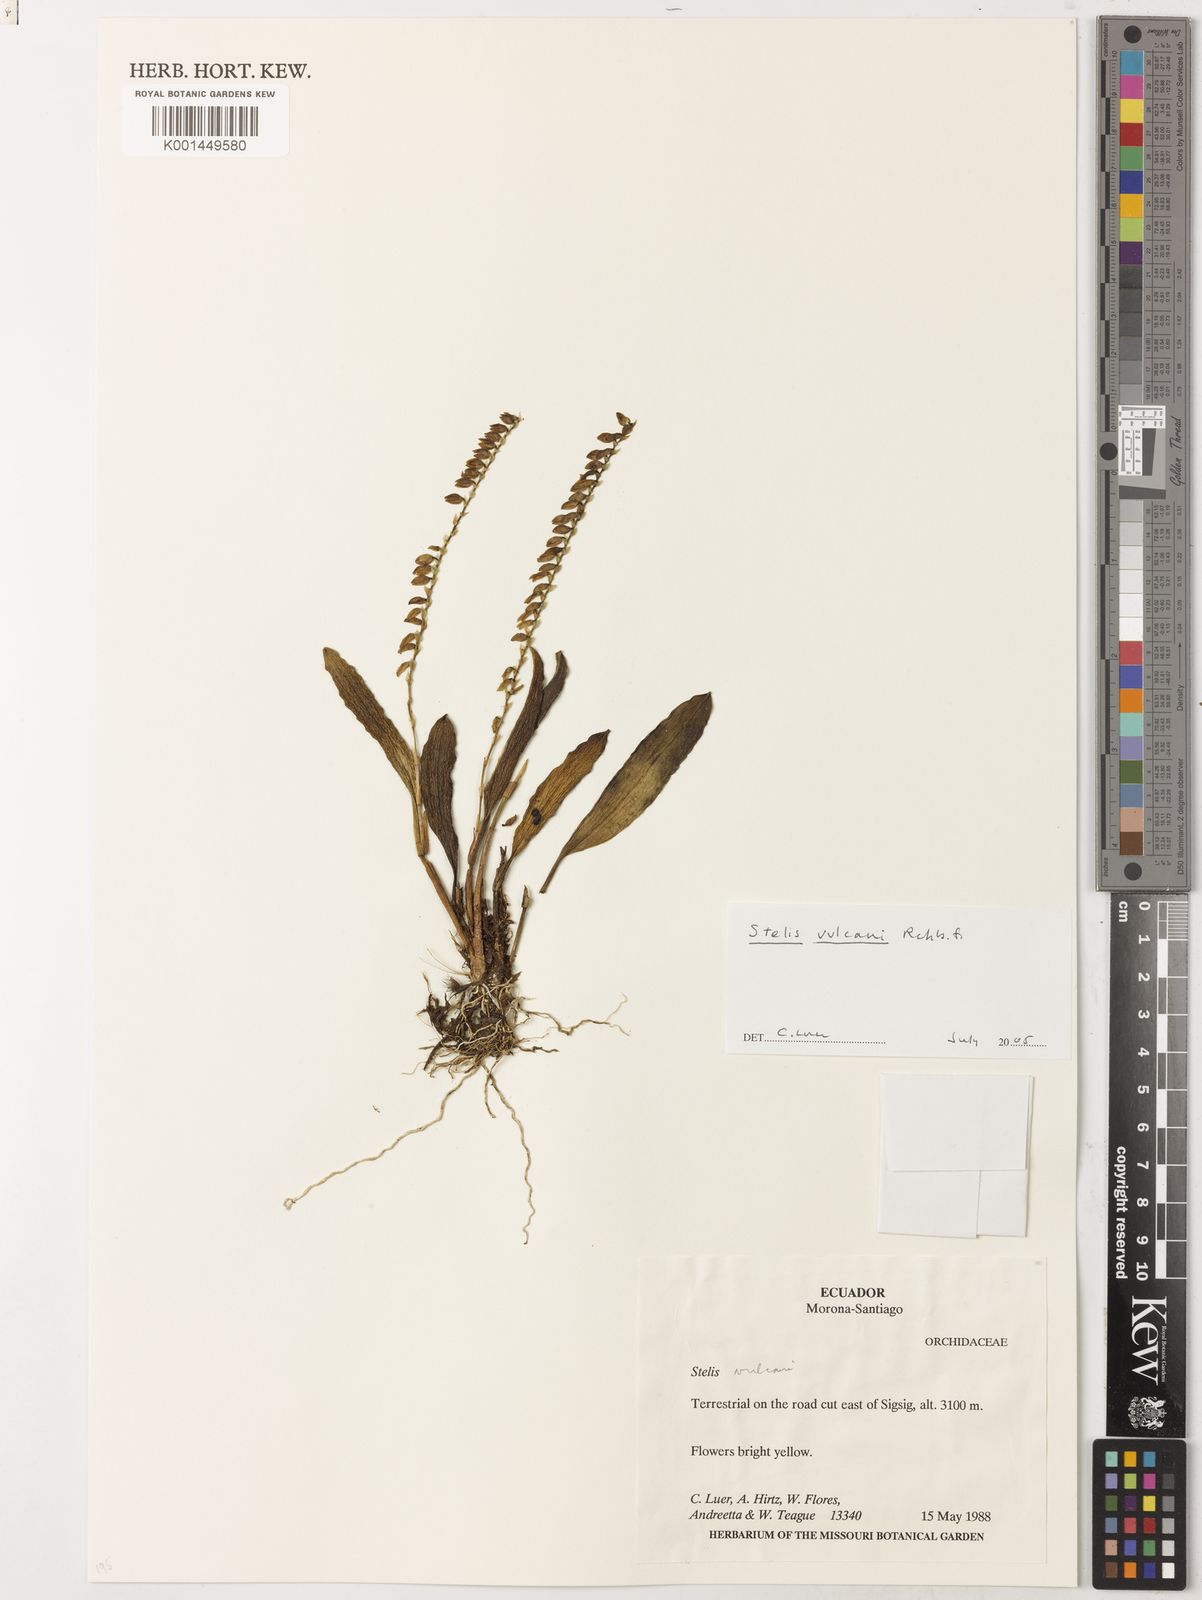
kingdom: Plantae
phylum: Tracheophyta
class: Liliopsida
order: Asparagales
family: Orchidaceae
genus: Stelis
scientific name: Stelis vulcani
